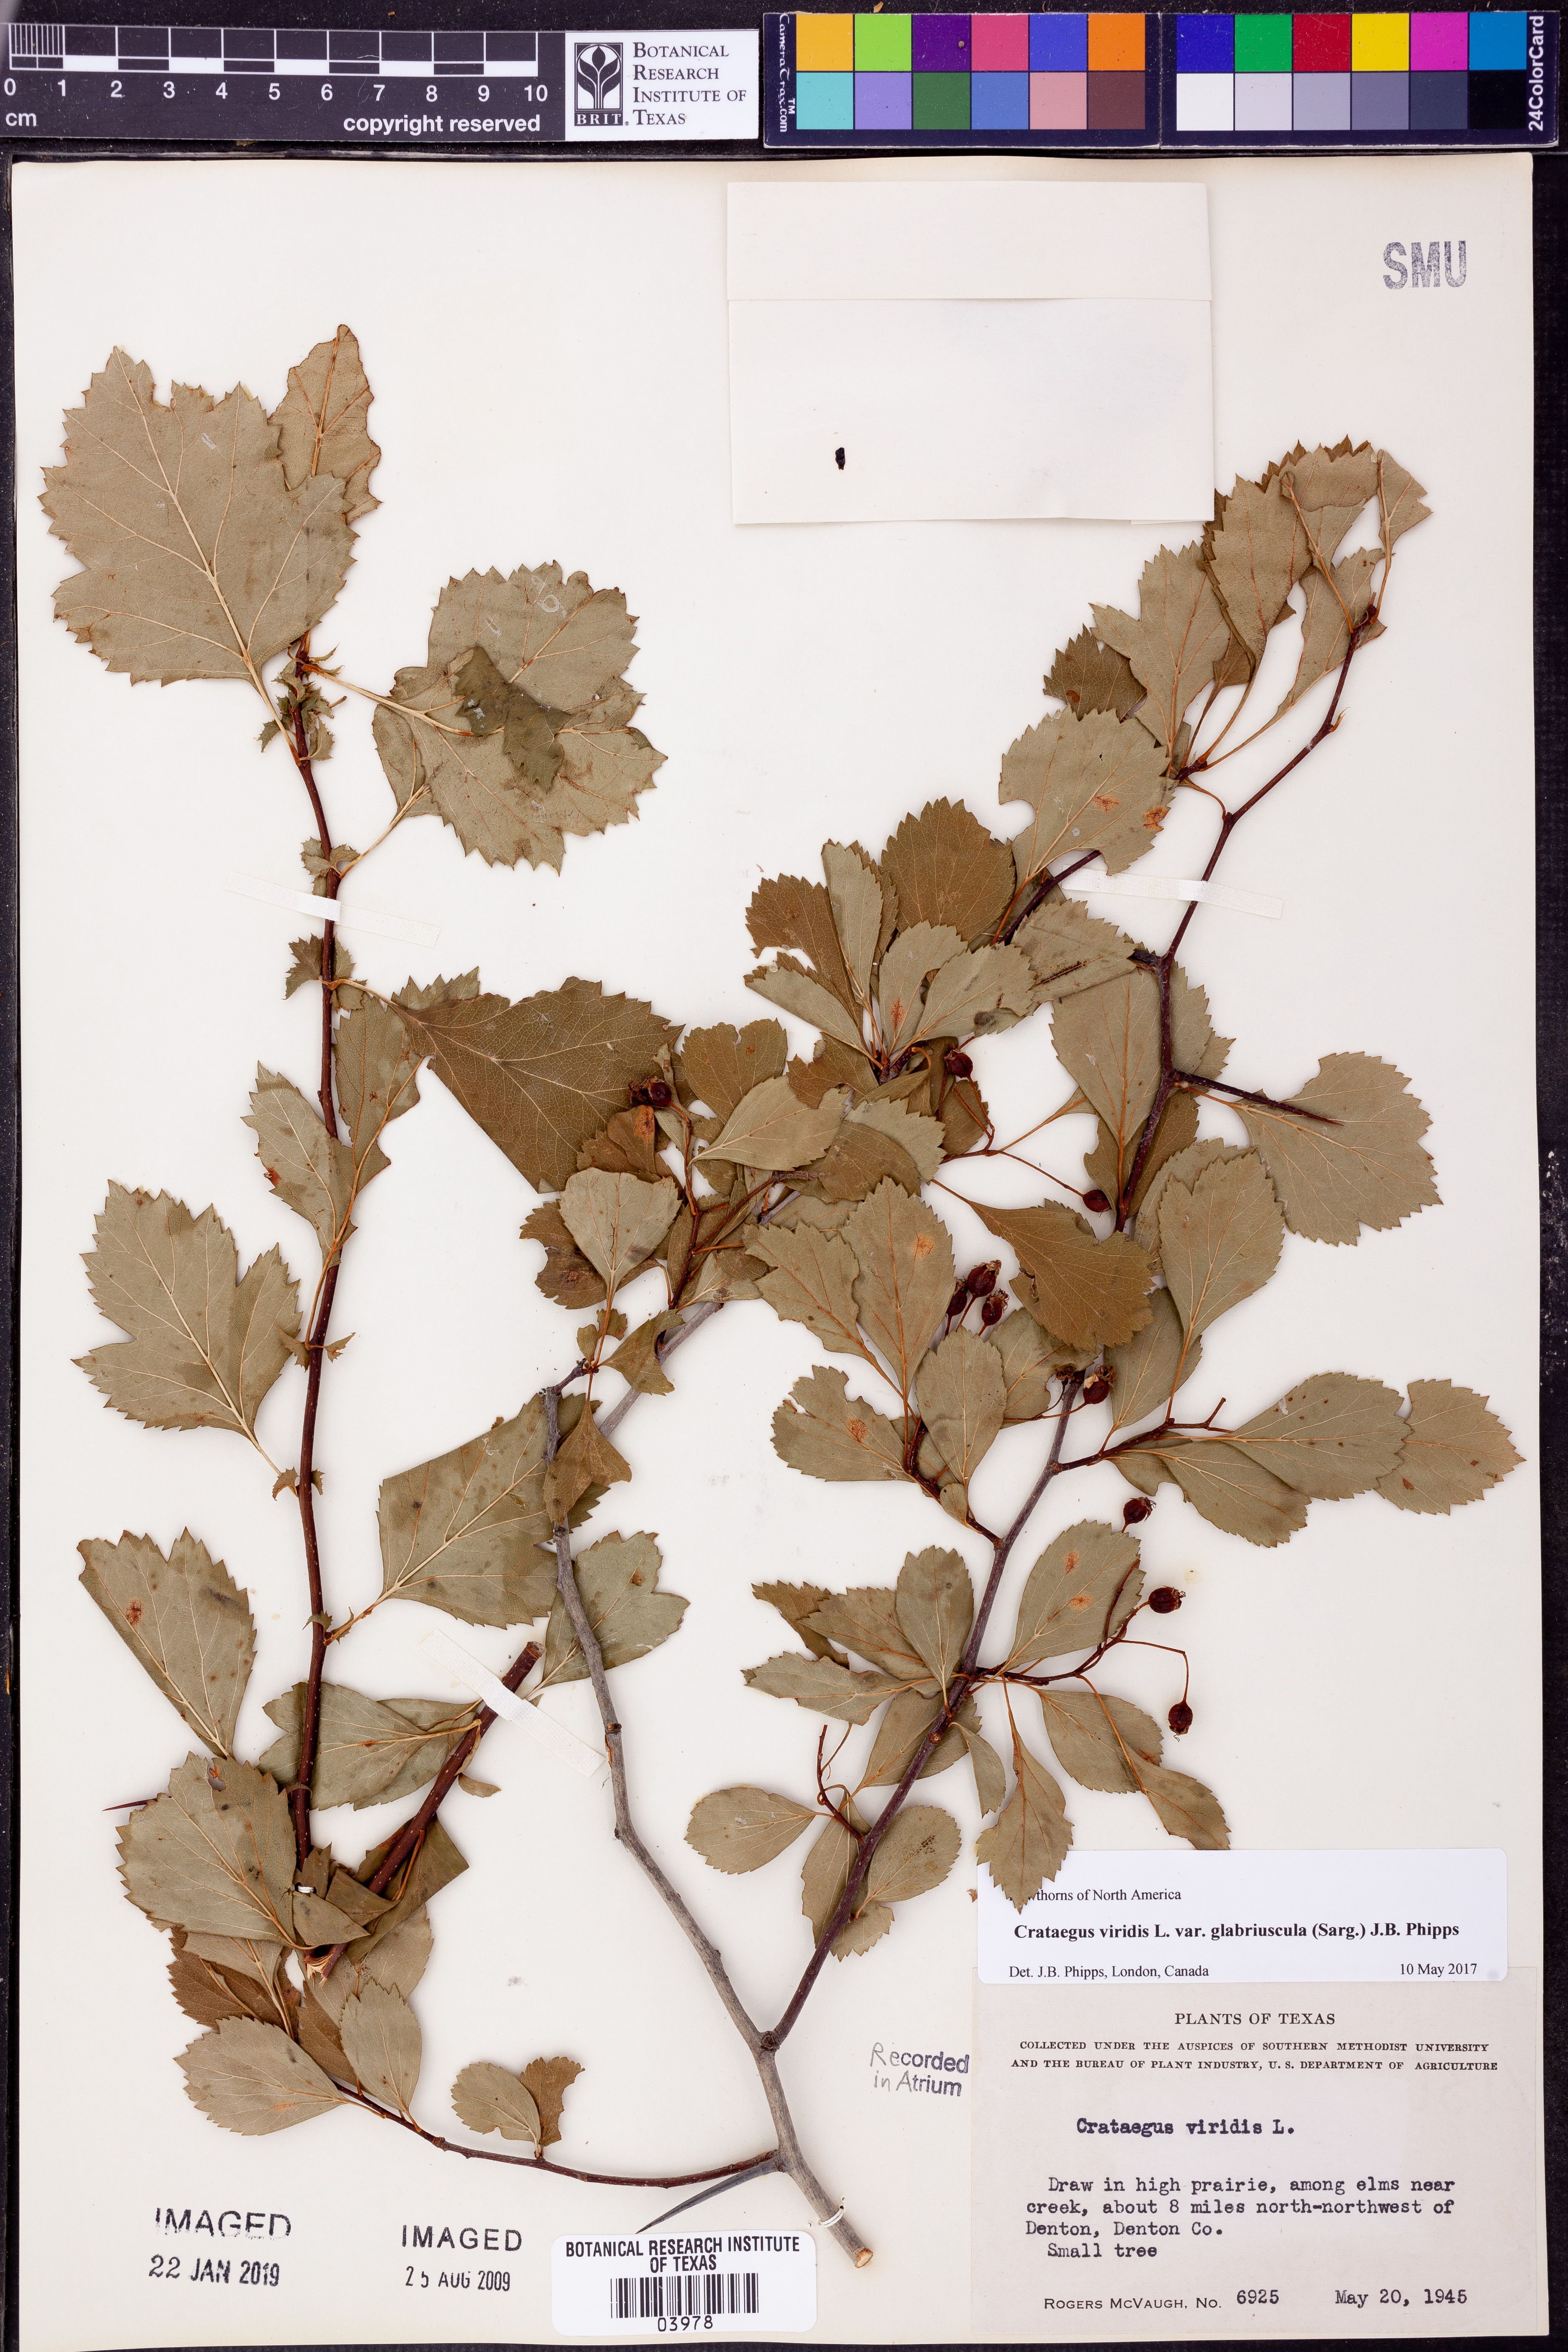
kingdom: Plantae
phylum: Tracheophyta
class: Magnoliopsida
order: Rosales
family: Rosaceae
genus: Crataegus
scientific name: Crataegus viridis
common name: Southernthorn
